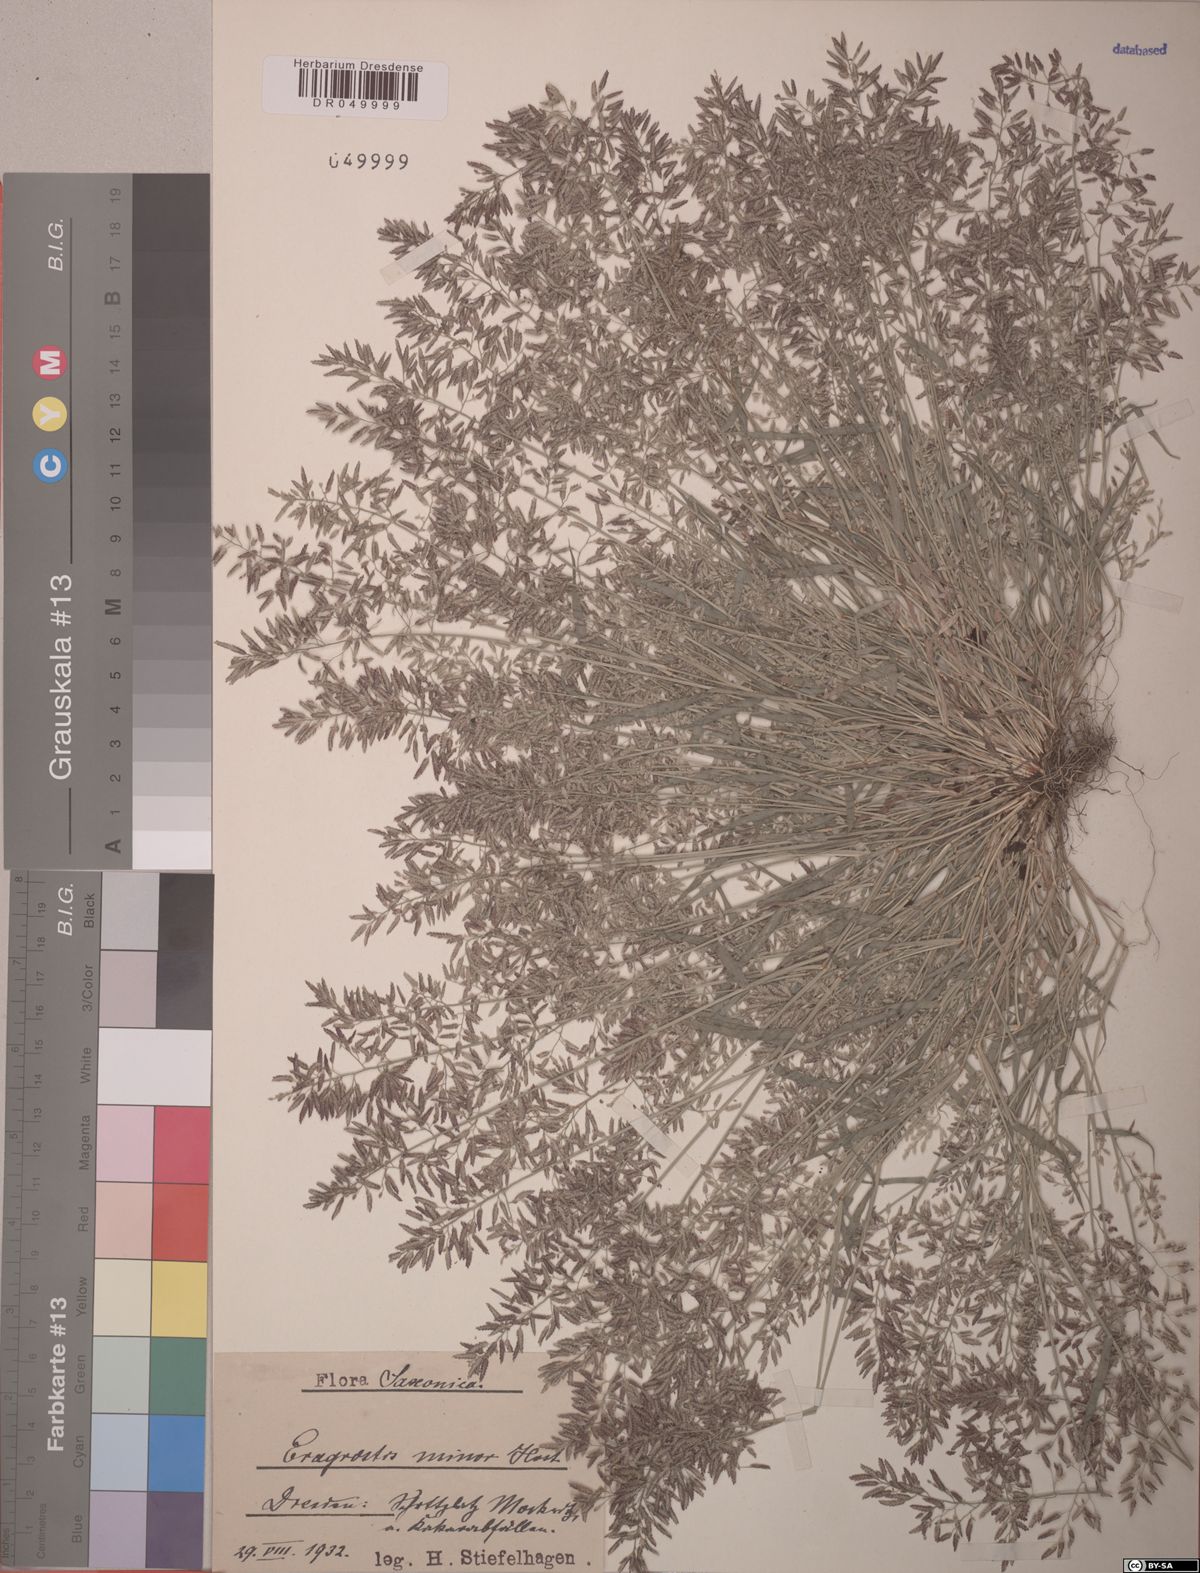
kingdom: Plantae
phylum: Tracheophyta
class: Liliopsida
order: Poales
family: Poaceae
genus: Eragrostis
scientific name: Eragrostis minor
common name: Small love-grass
